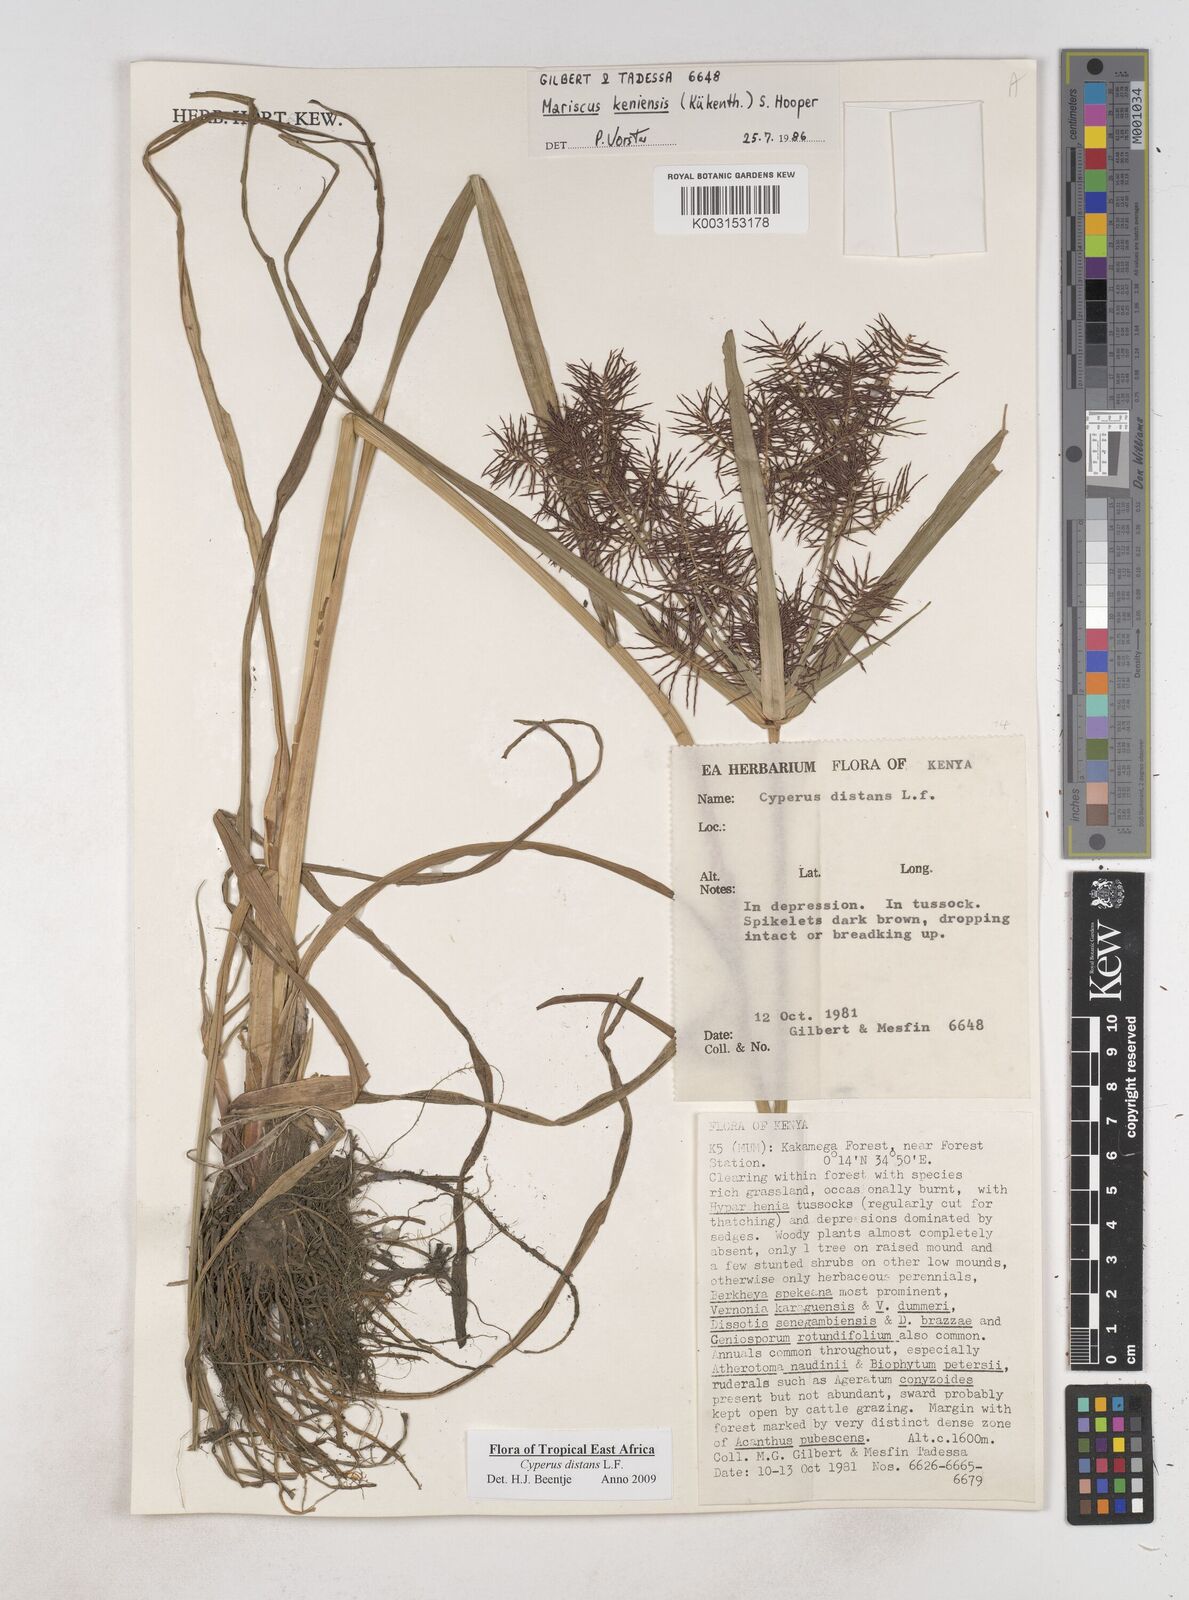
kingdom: Plantae
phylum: Tracheophyta
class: Liliopsida
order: Poales
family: Cyperaceae
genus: Cyperus
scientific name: Cyperus distans
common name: Slender cyperus
